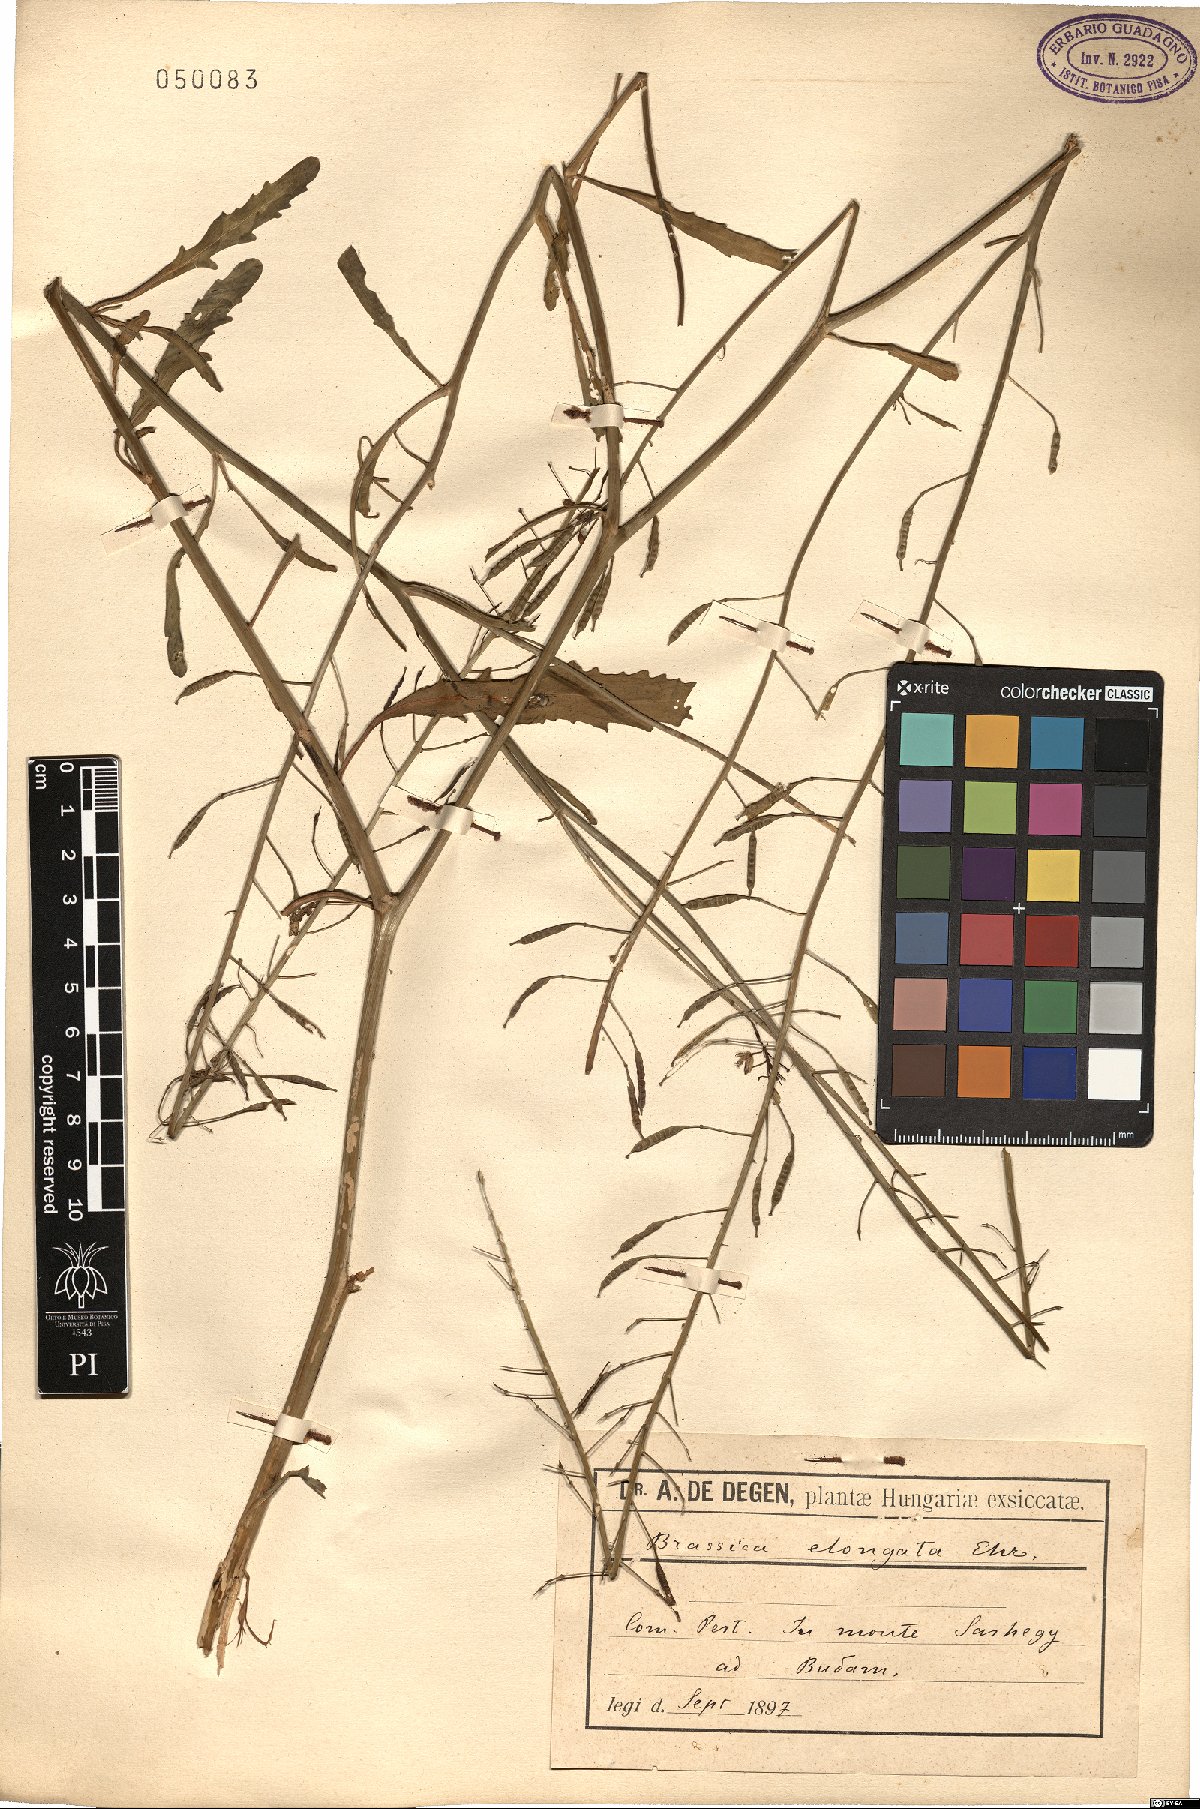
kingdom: Plantae
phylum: Tracheophyta
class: Magnoliopsida
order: Brassicales
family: Brassicaceae
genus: Brassica
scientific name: Brassica elongata
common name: Long-stalked rape
